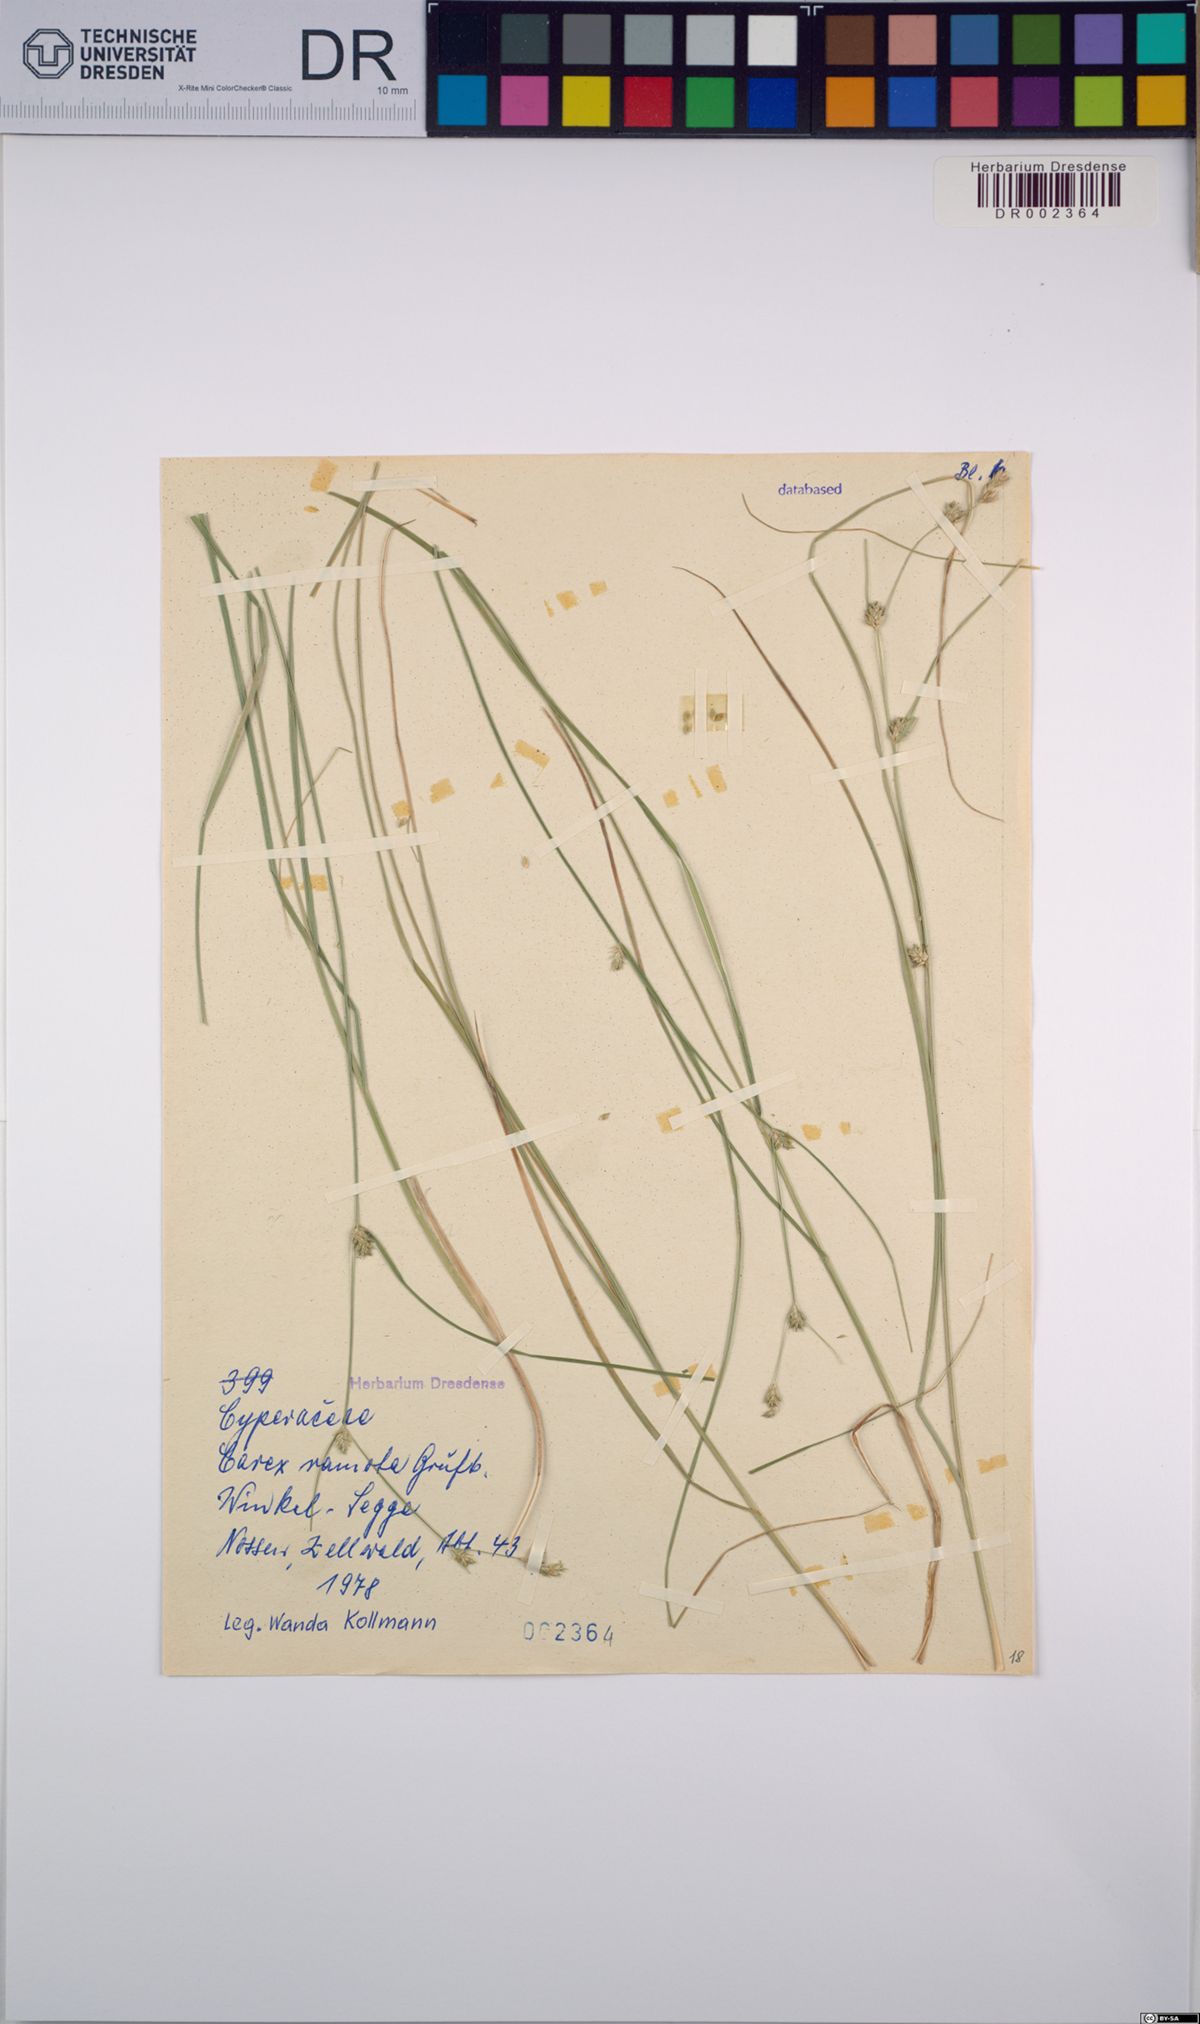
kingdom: Plantae
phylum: Tracheophyta
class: Liliopsida
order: Poales
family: Cyperaceae
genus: Carex
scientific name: Carex remota
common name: Remote sedge
